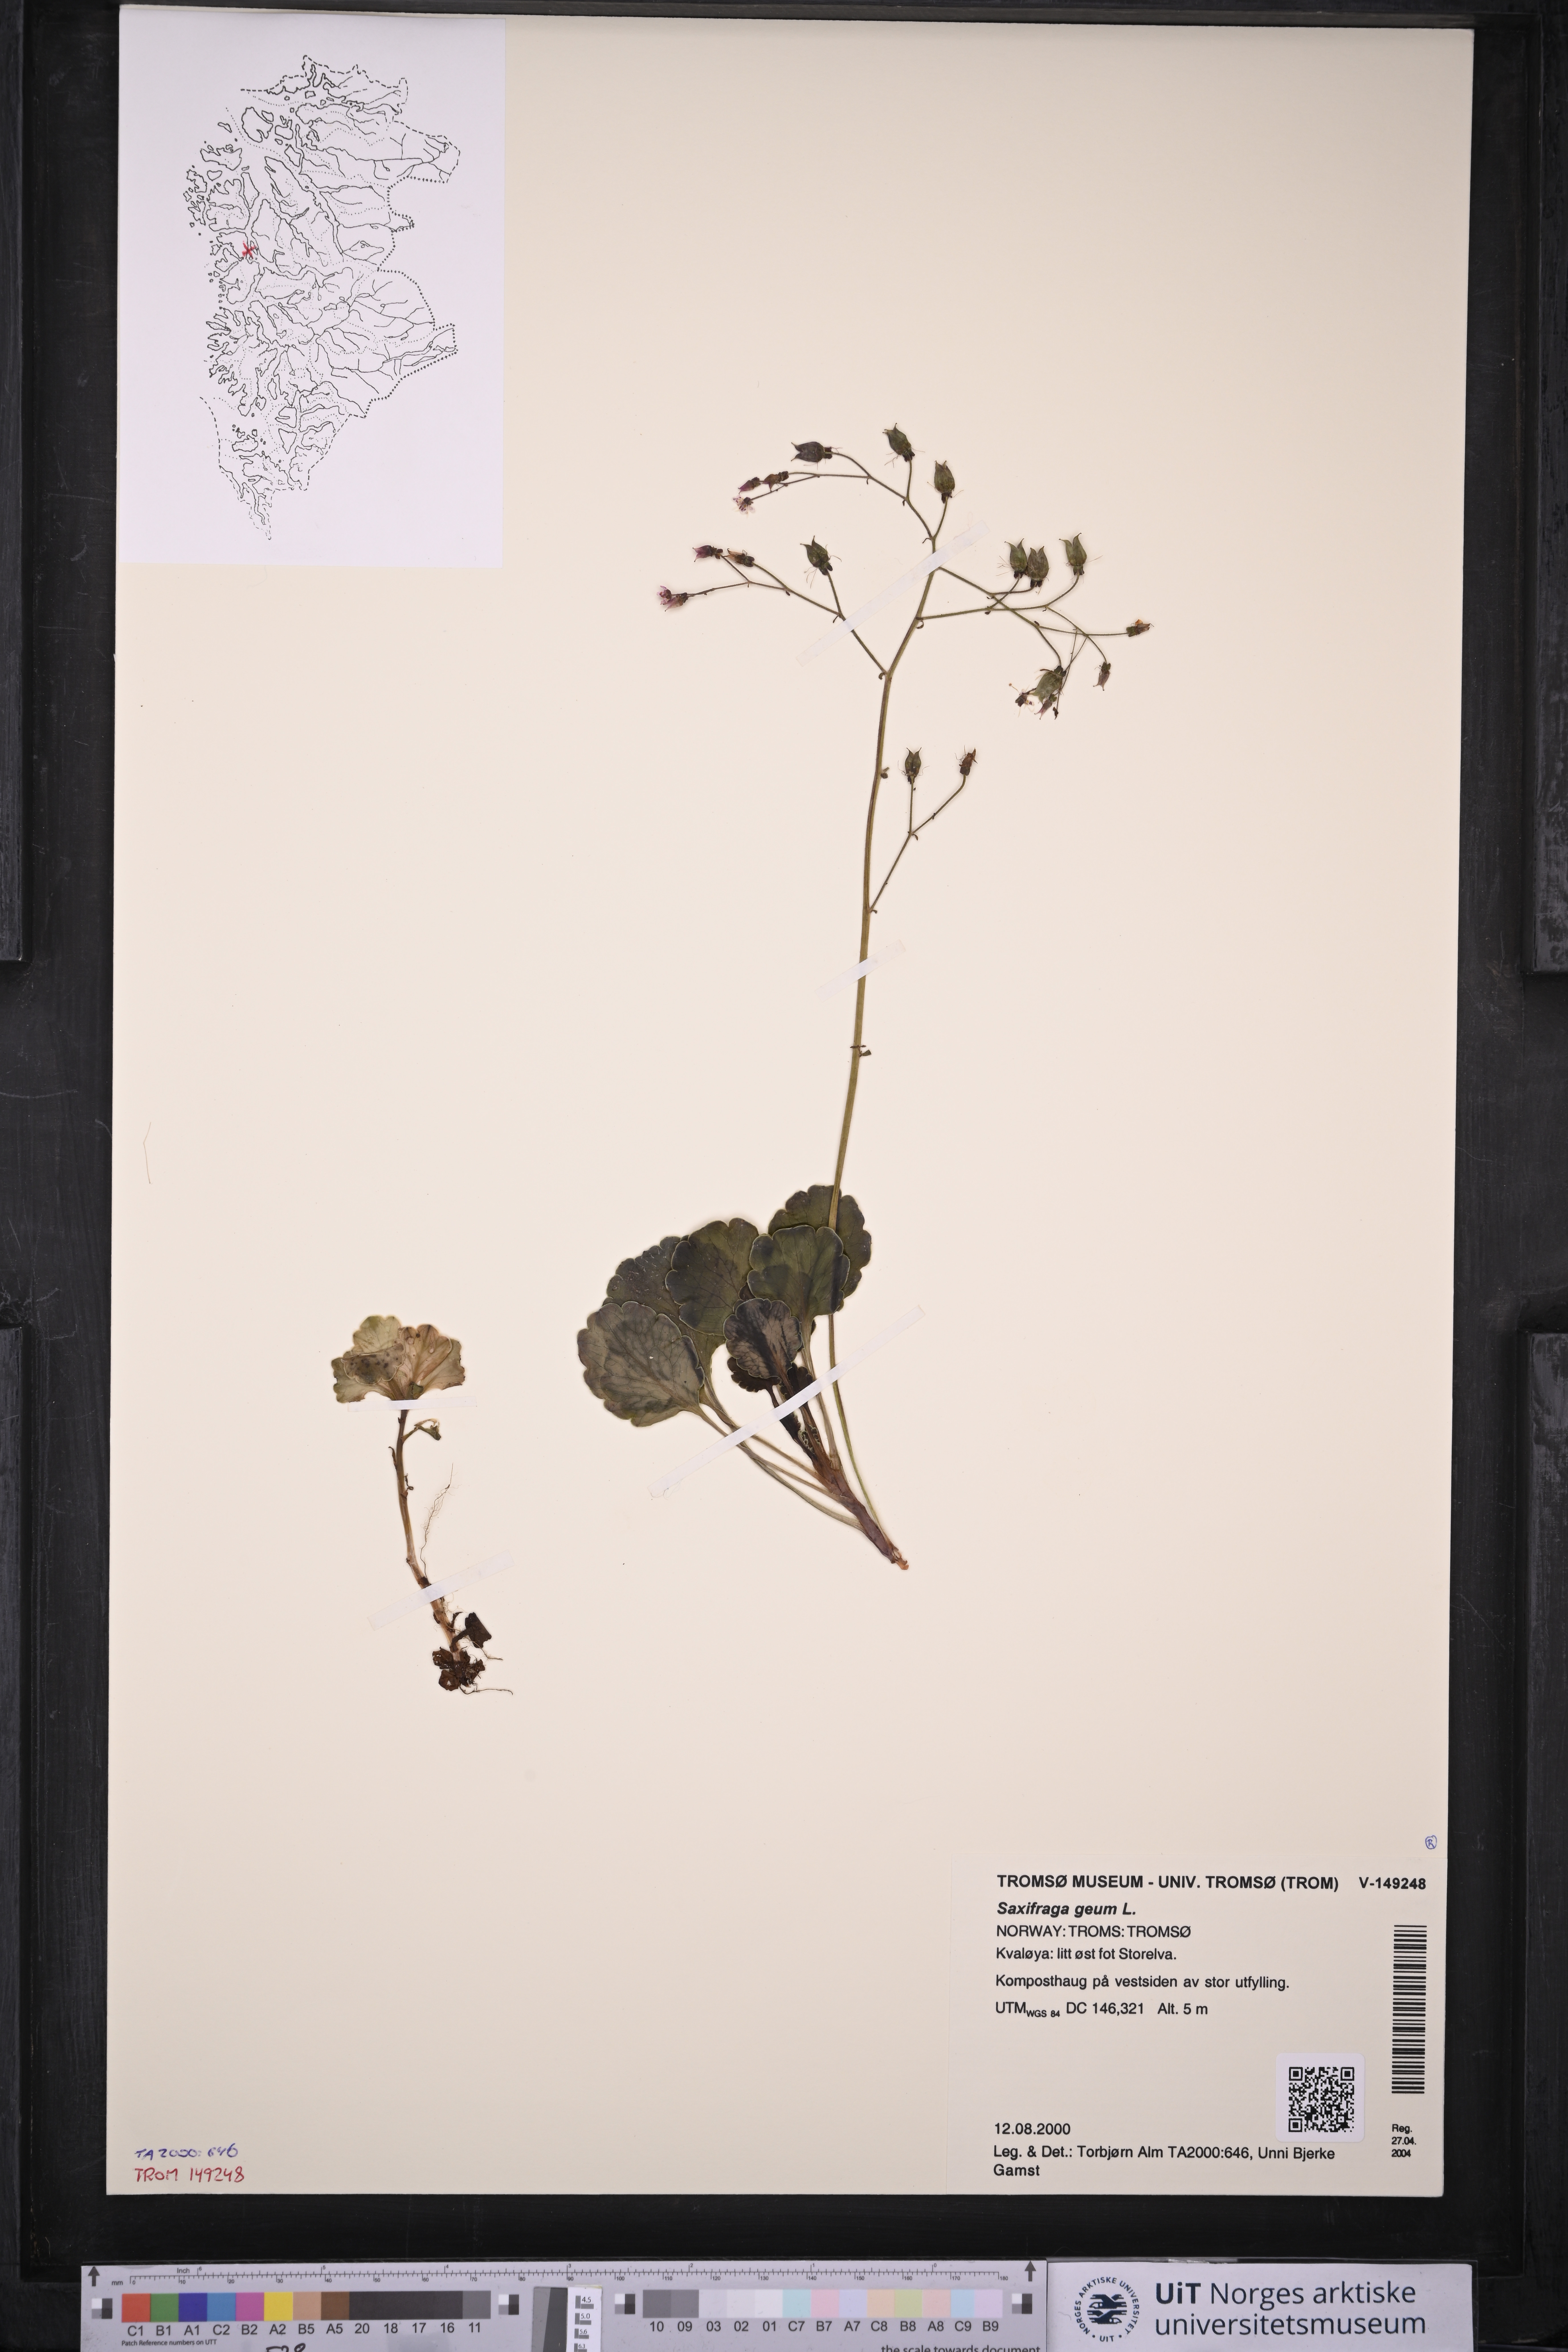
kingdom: Plantae
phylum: Tracheophyta
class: Magnoliopsida
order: Saxifragales
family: Saxifragaceae
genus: Saxifraga
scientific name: Saxifraga geum
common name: Geum saxifrage
